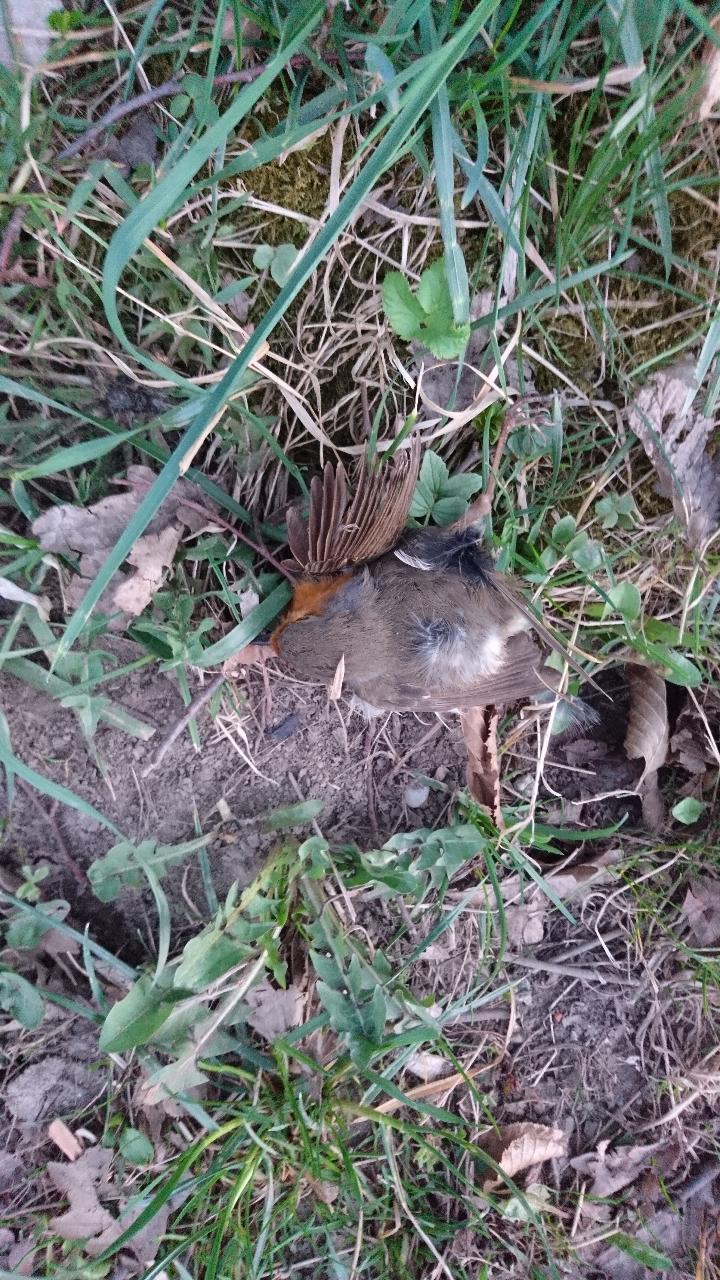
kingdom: Animalia
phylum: Chordata
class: Aves
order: Passeriformes
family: Muscicapidae
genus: Erithacus
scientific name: Erithacus rubecula
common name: European robin
